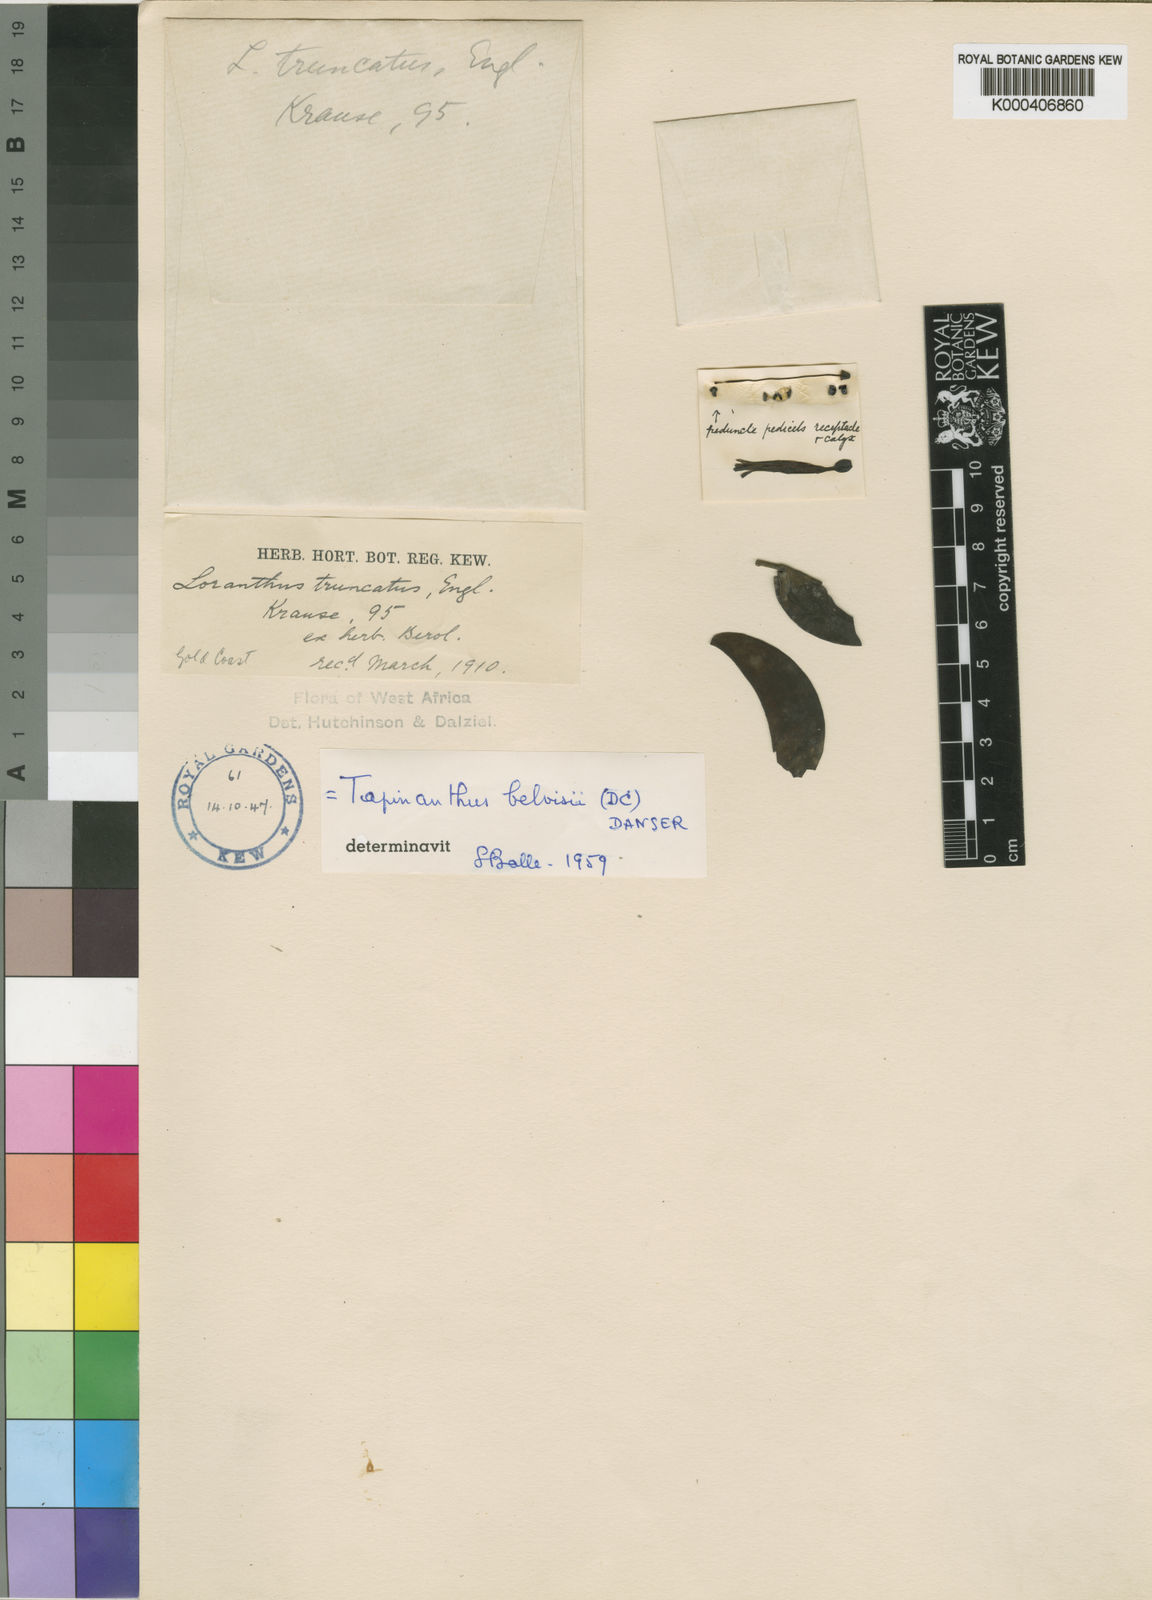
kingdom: Plantae
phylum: Tracheophyta
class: Magnoliopsida
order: Santalales
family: Loranthaceae
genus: Tapinanthus
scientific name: Tapinanthus belvisii
